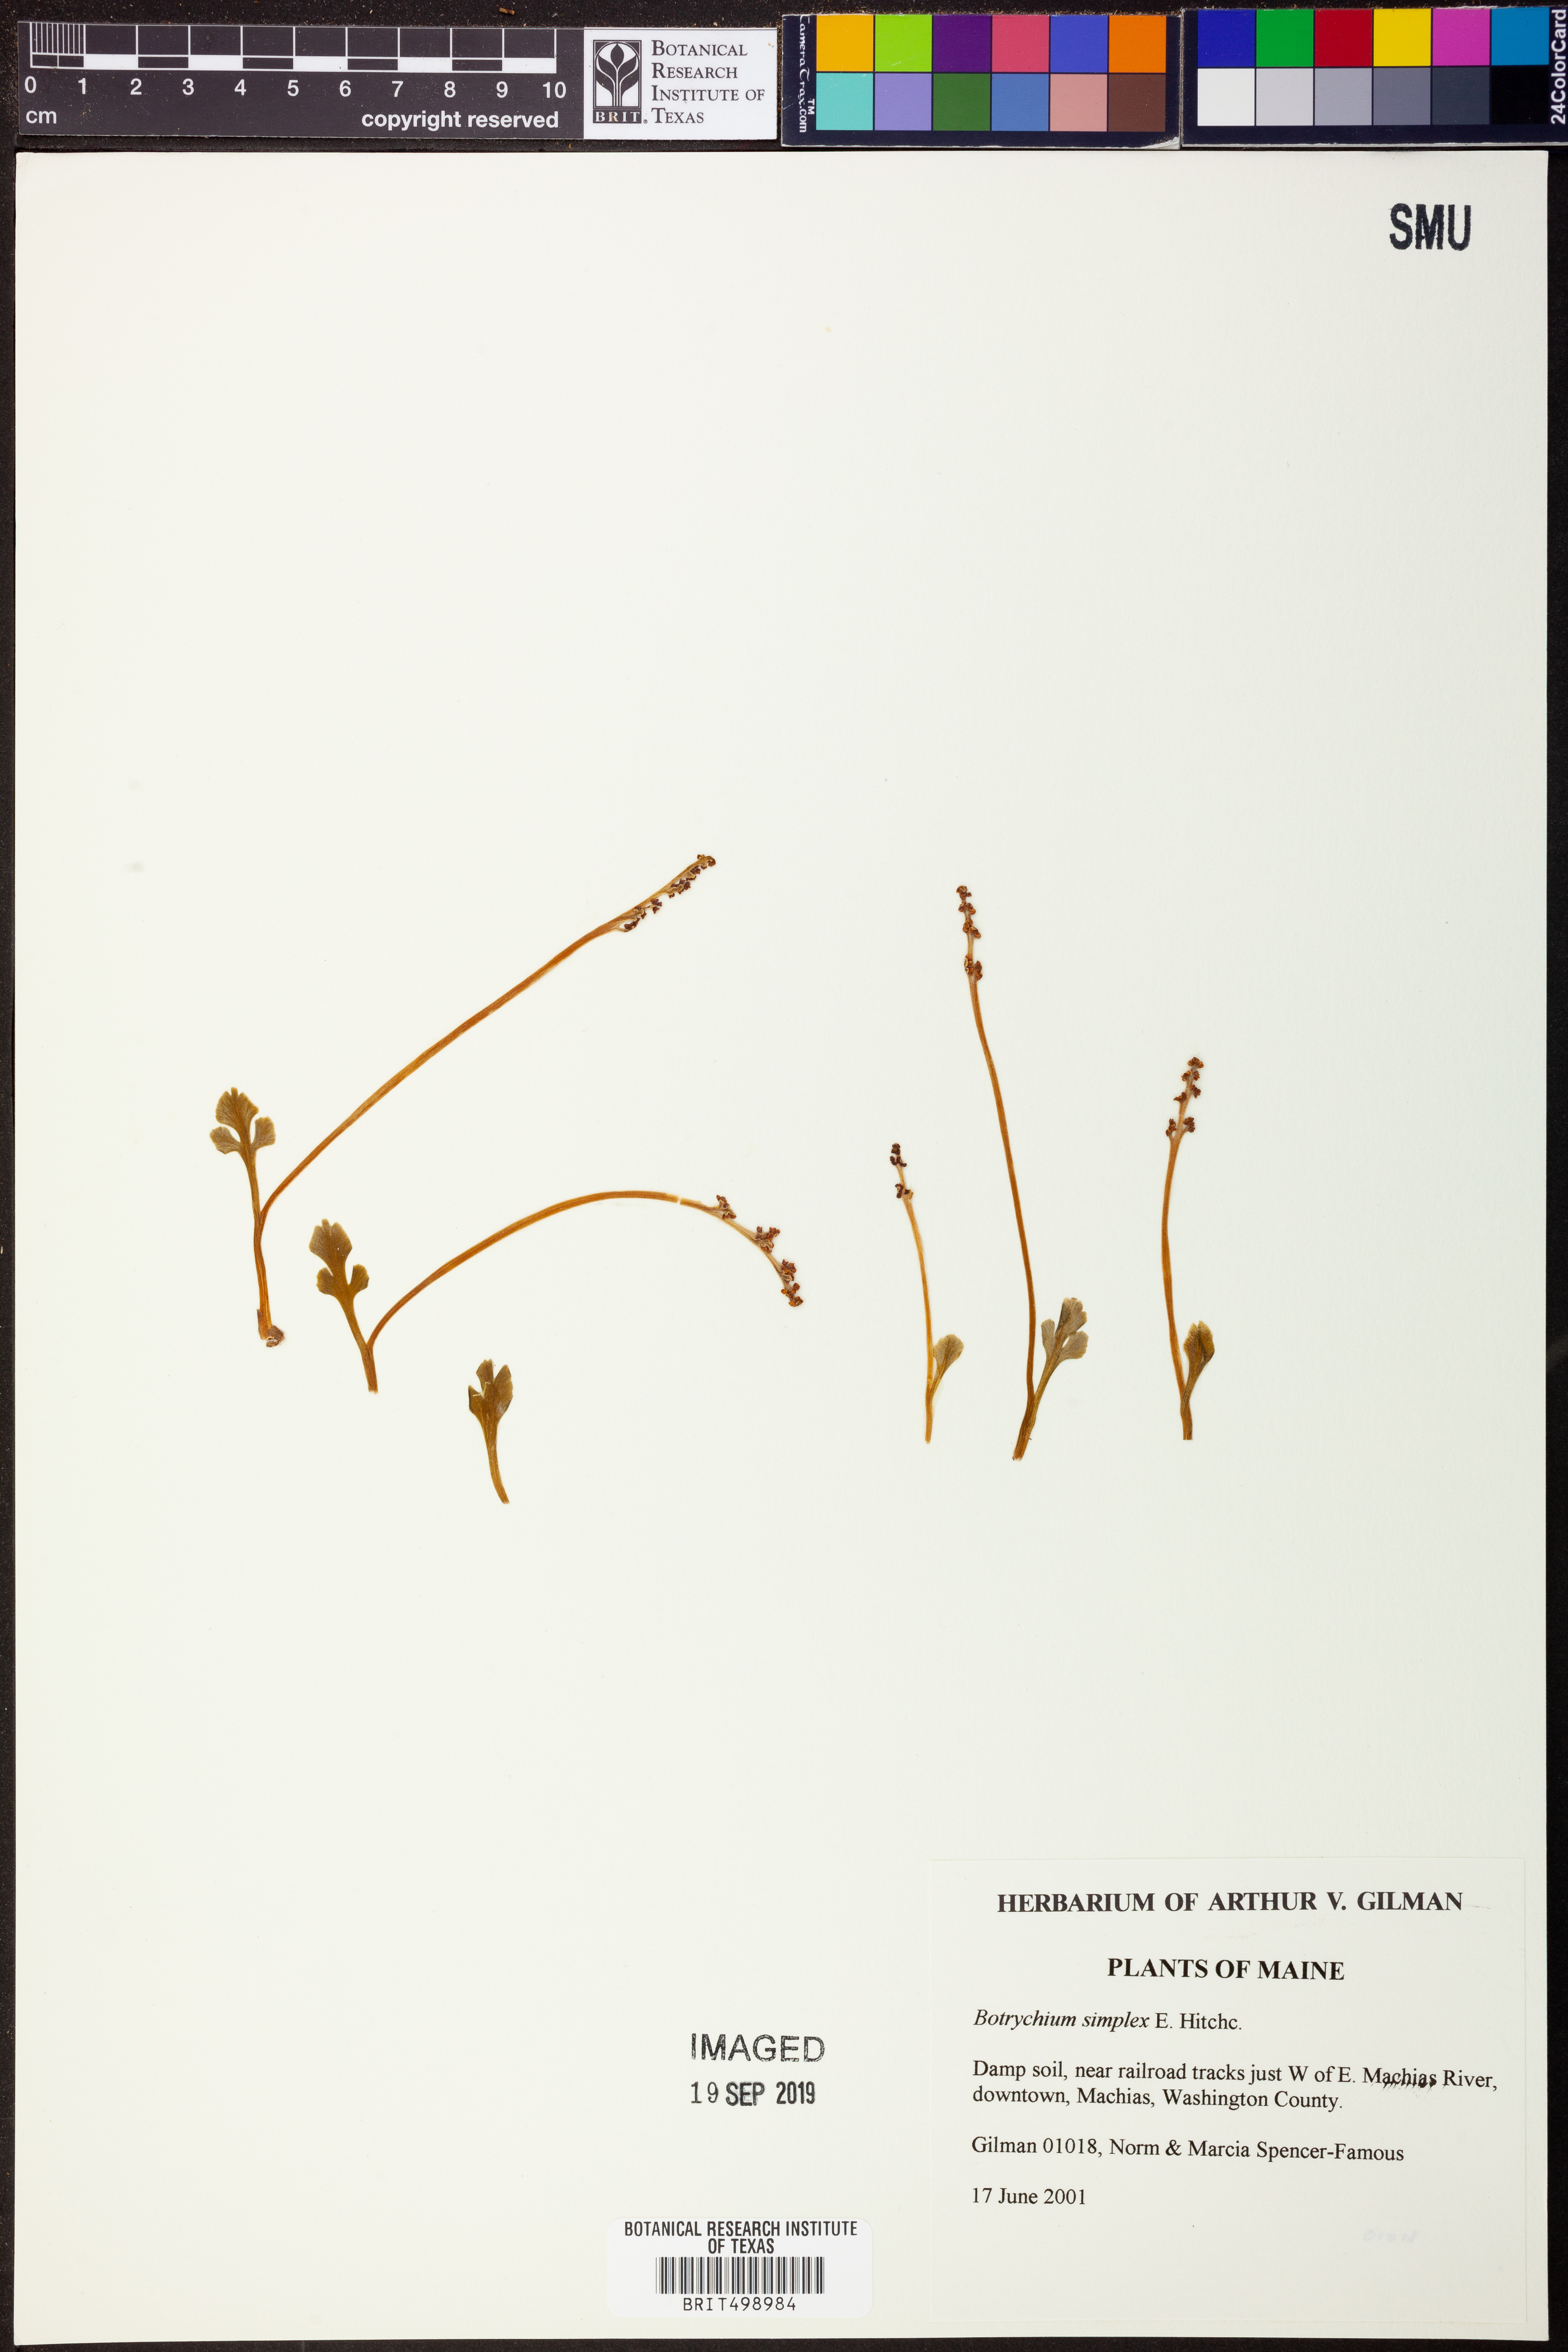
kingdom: Plantae
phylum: Tracheophyta
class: Polypodiopsida
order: Ophioglossales
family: Ophioglossaceae
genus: Botrychium
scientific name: Botrychium simplex
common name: Least moonwort
